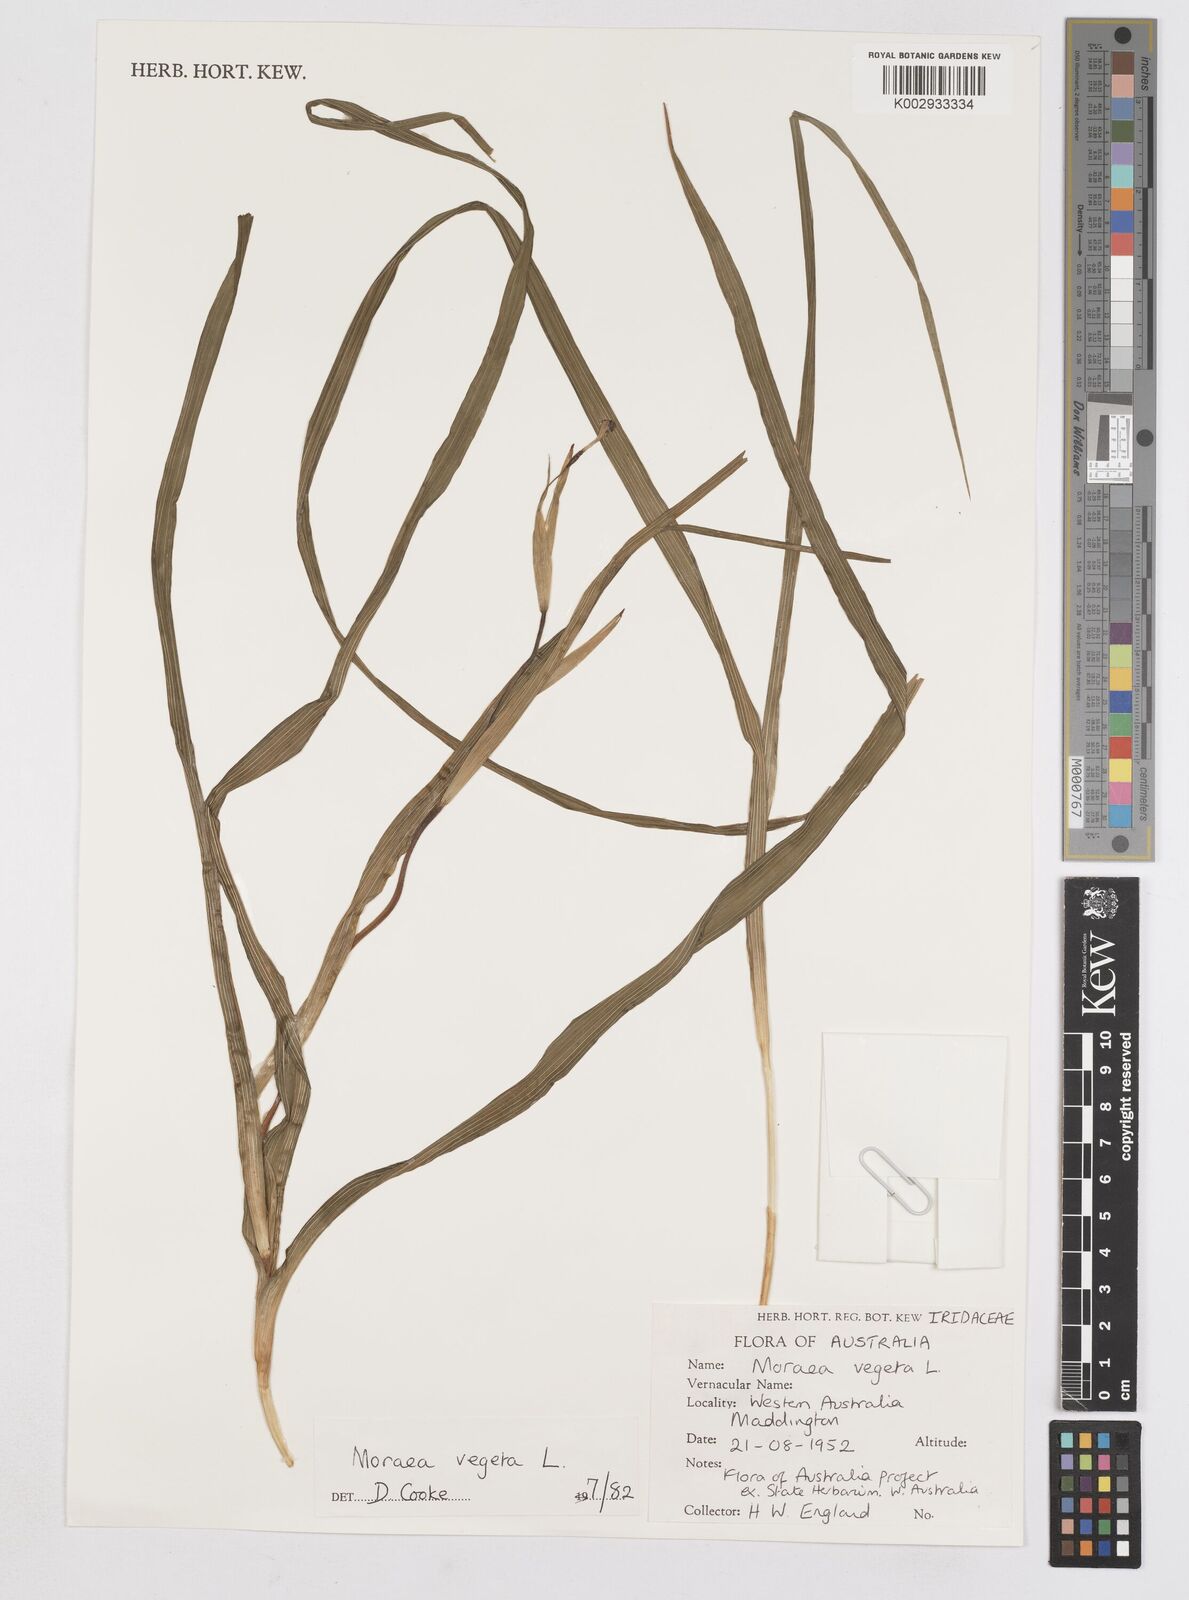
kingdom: Plantae
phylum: Tracheophyta
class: Liliopsida
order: Asparagales
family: Iridaceae
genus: Moraea
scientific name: Moraea vegeta
